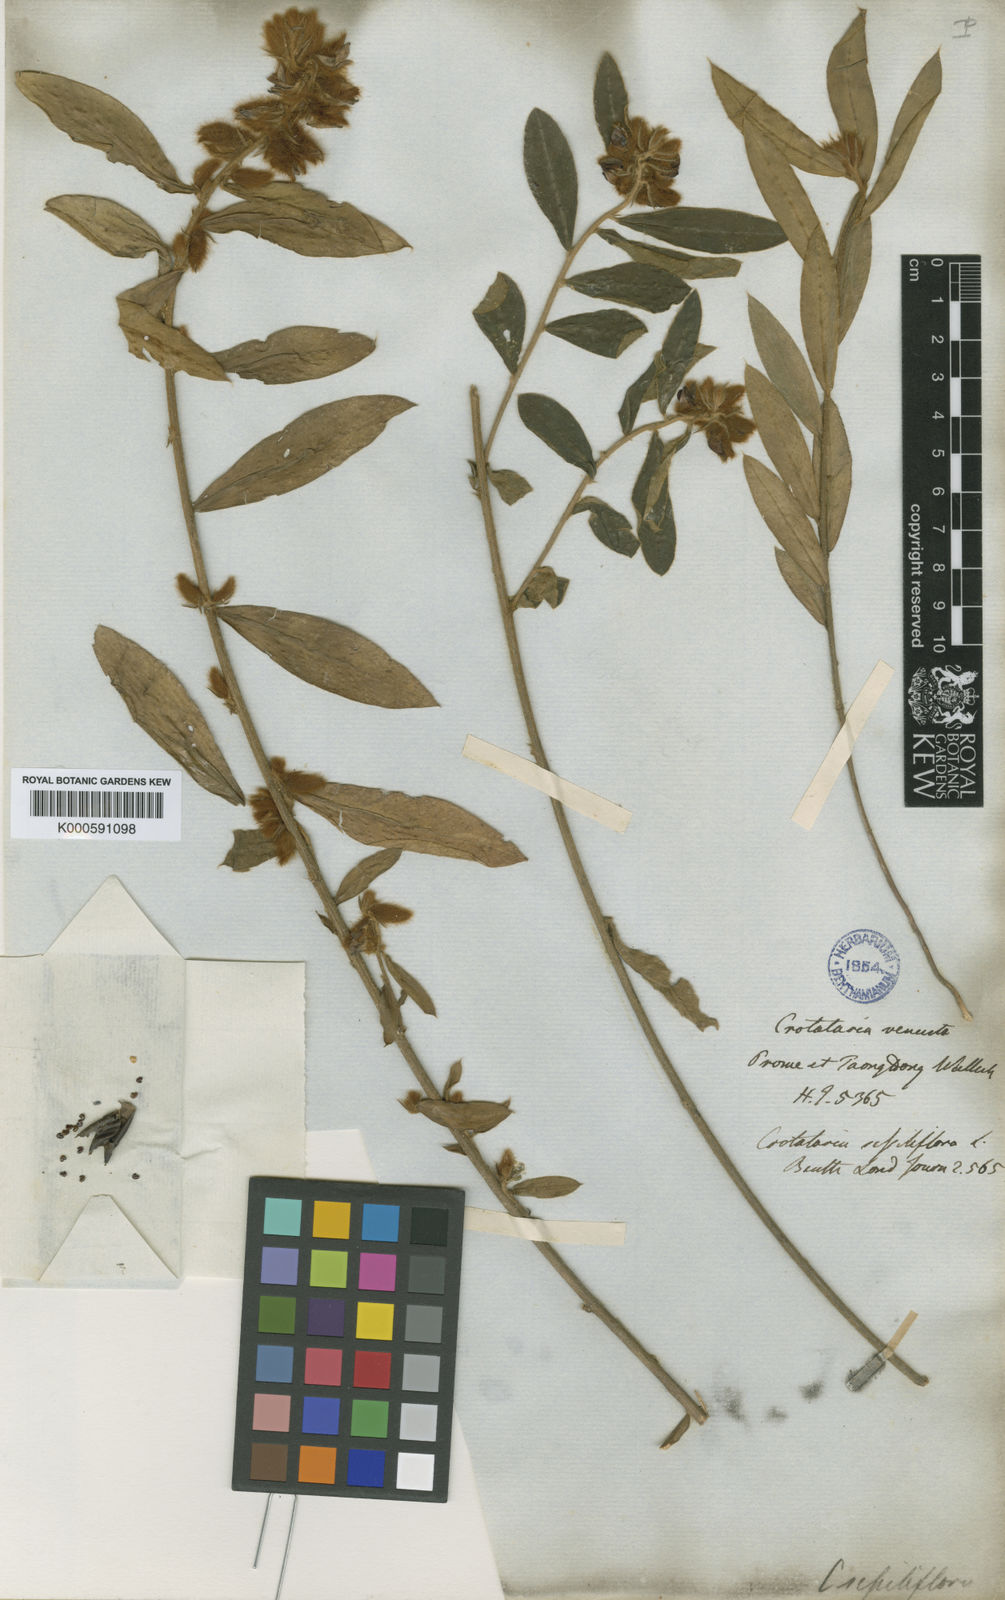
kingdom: Plantae
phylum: Tracheophyta
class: Magnoliopsida
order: Fabales
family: Fabaceae
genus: Crotalaria
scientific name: Crotalaria sessiliflora
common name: Rattlebox
